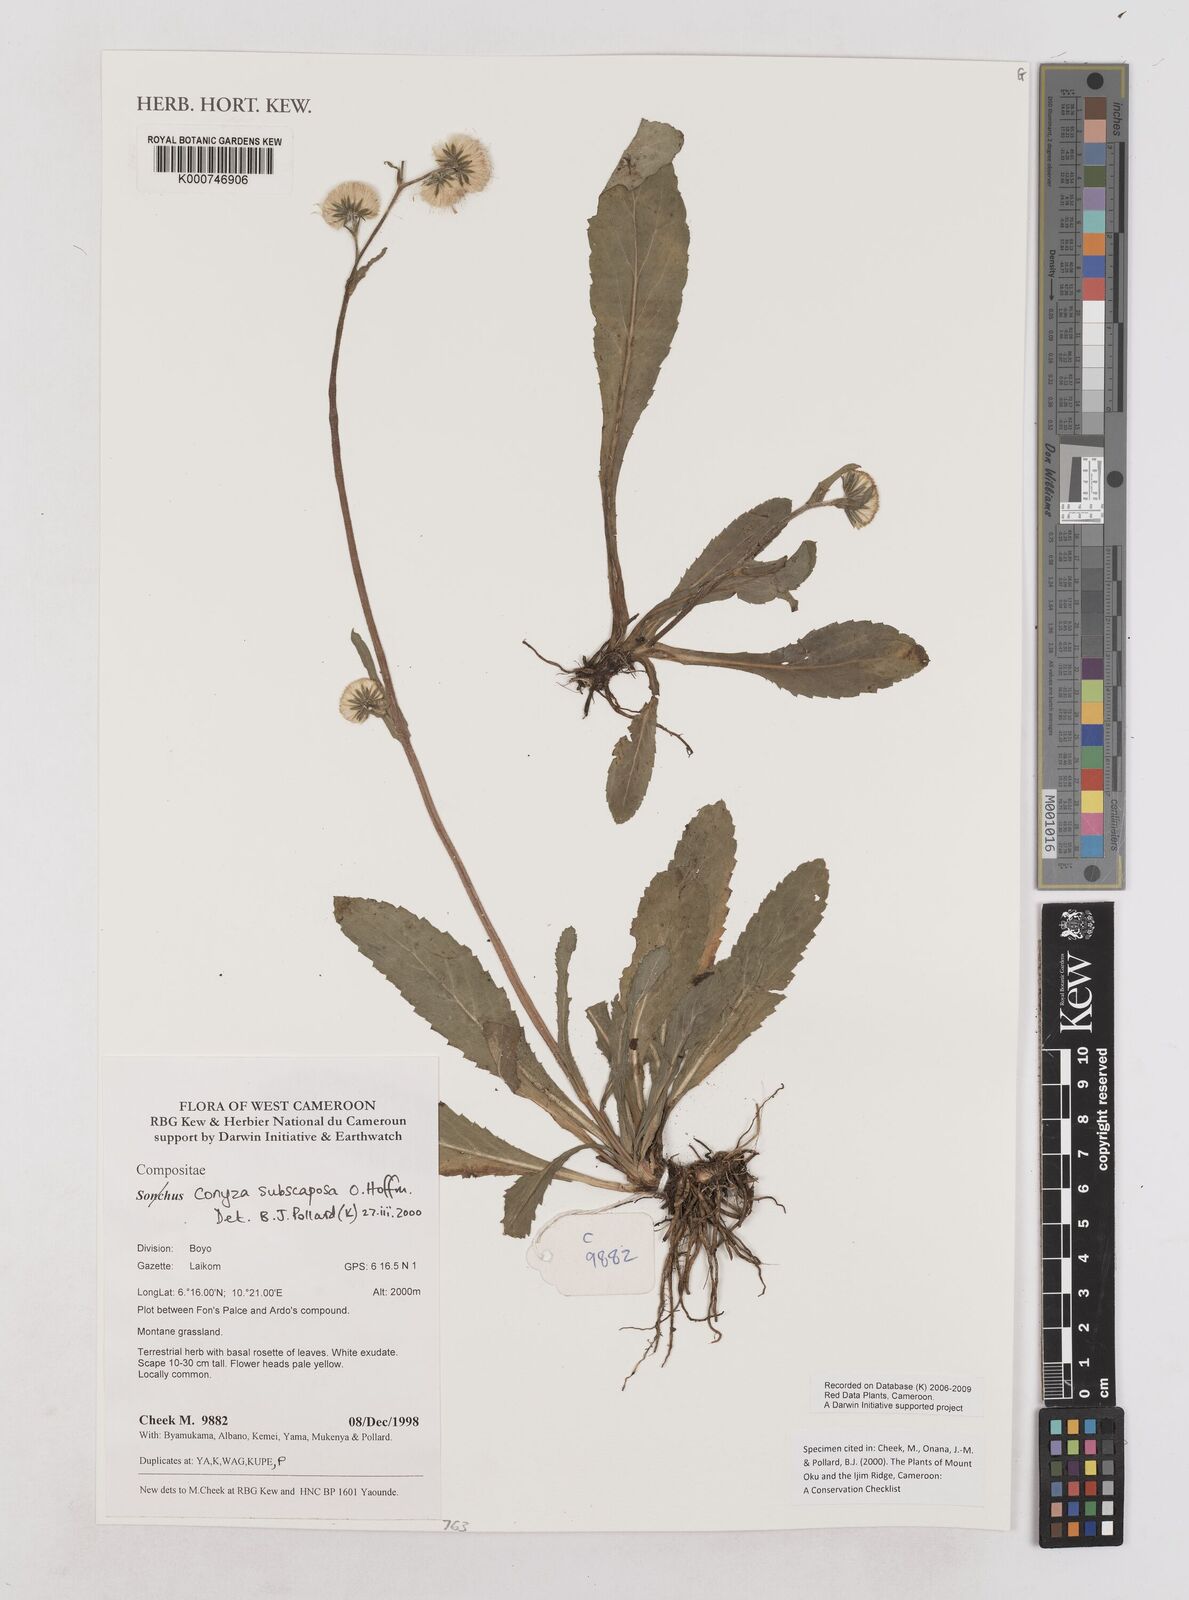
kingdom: Plantae
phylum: Tracheophyta
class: Magnoliopsida
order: Asterales
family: Asteraceae
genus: Eschenbachia
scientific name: Eschenbachia subscaposa
